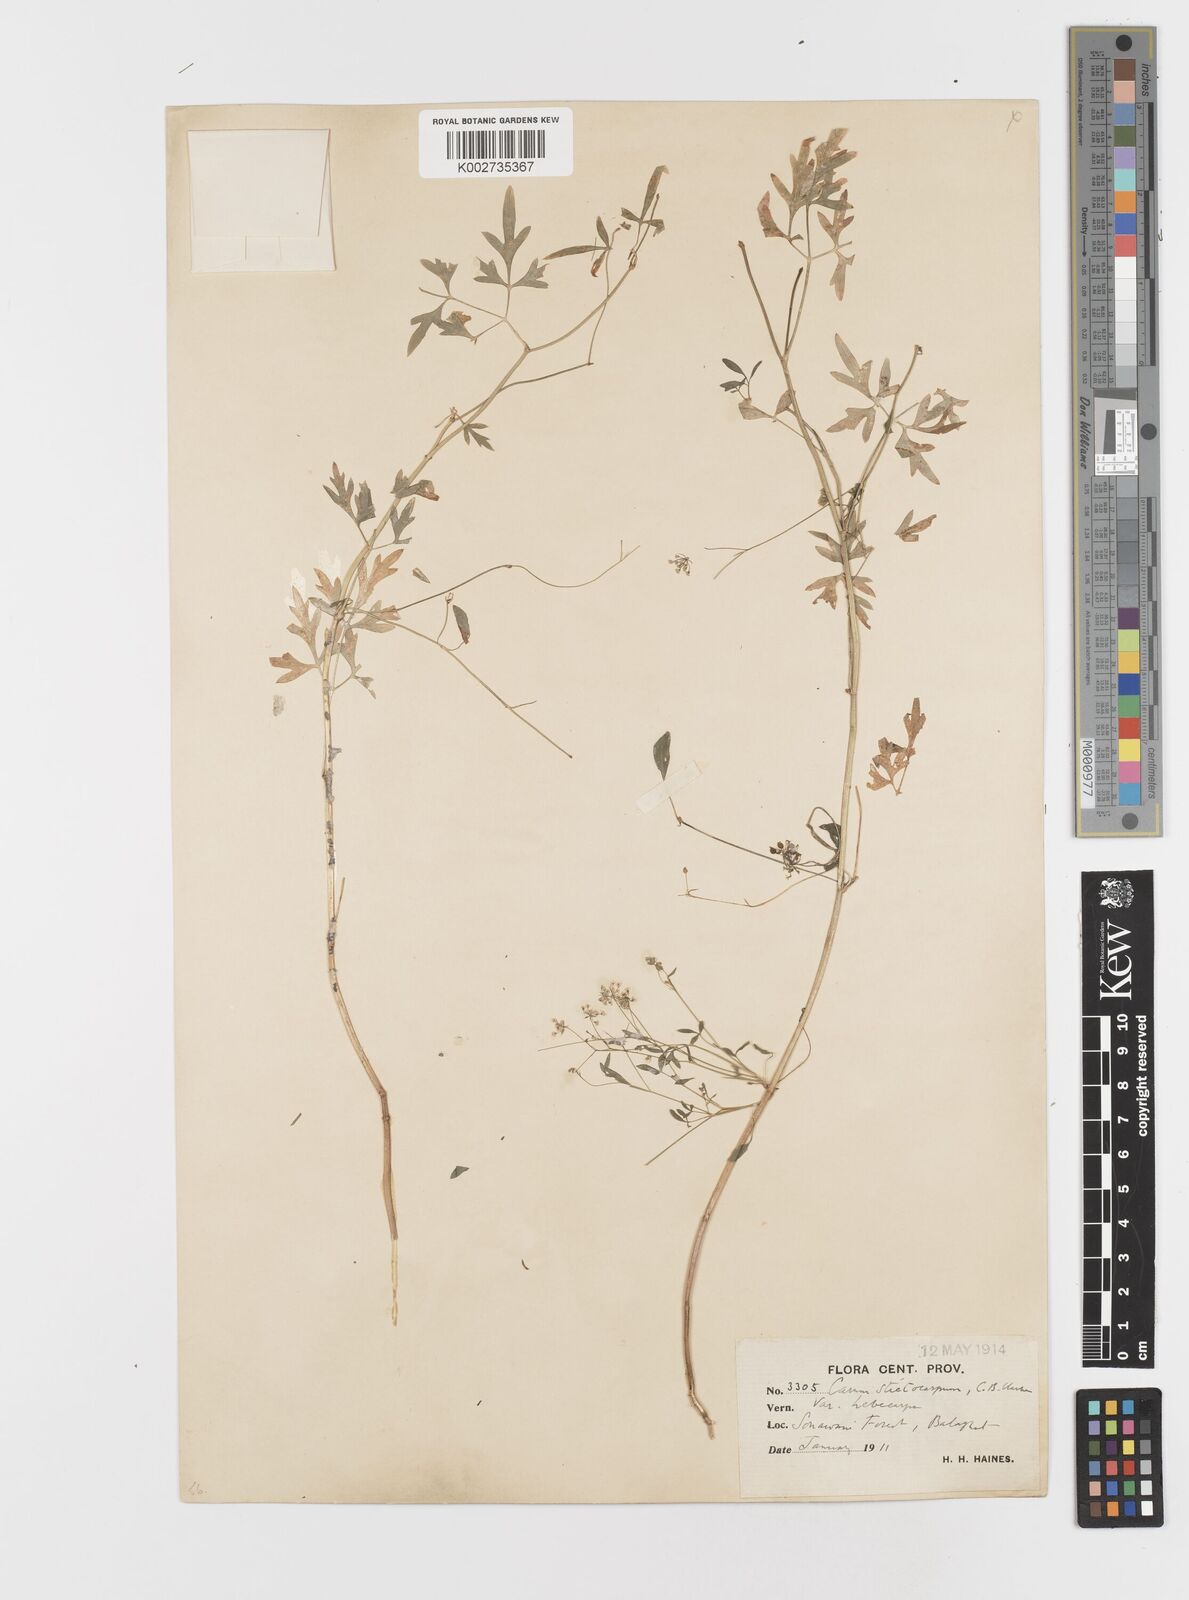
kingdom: Plantae
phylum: Tracheophyta
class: Magnoliopsida
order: Apiales
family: Apiaceae
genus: Psammogeton
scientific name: Psammogeton involucratum
